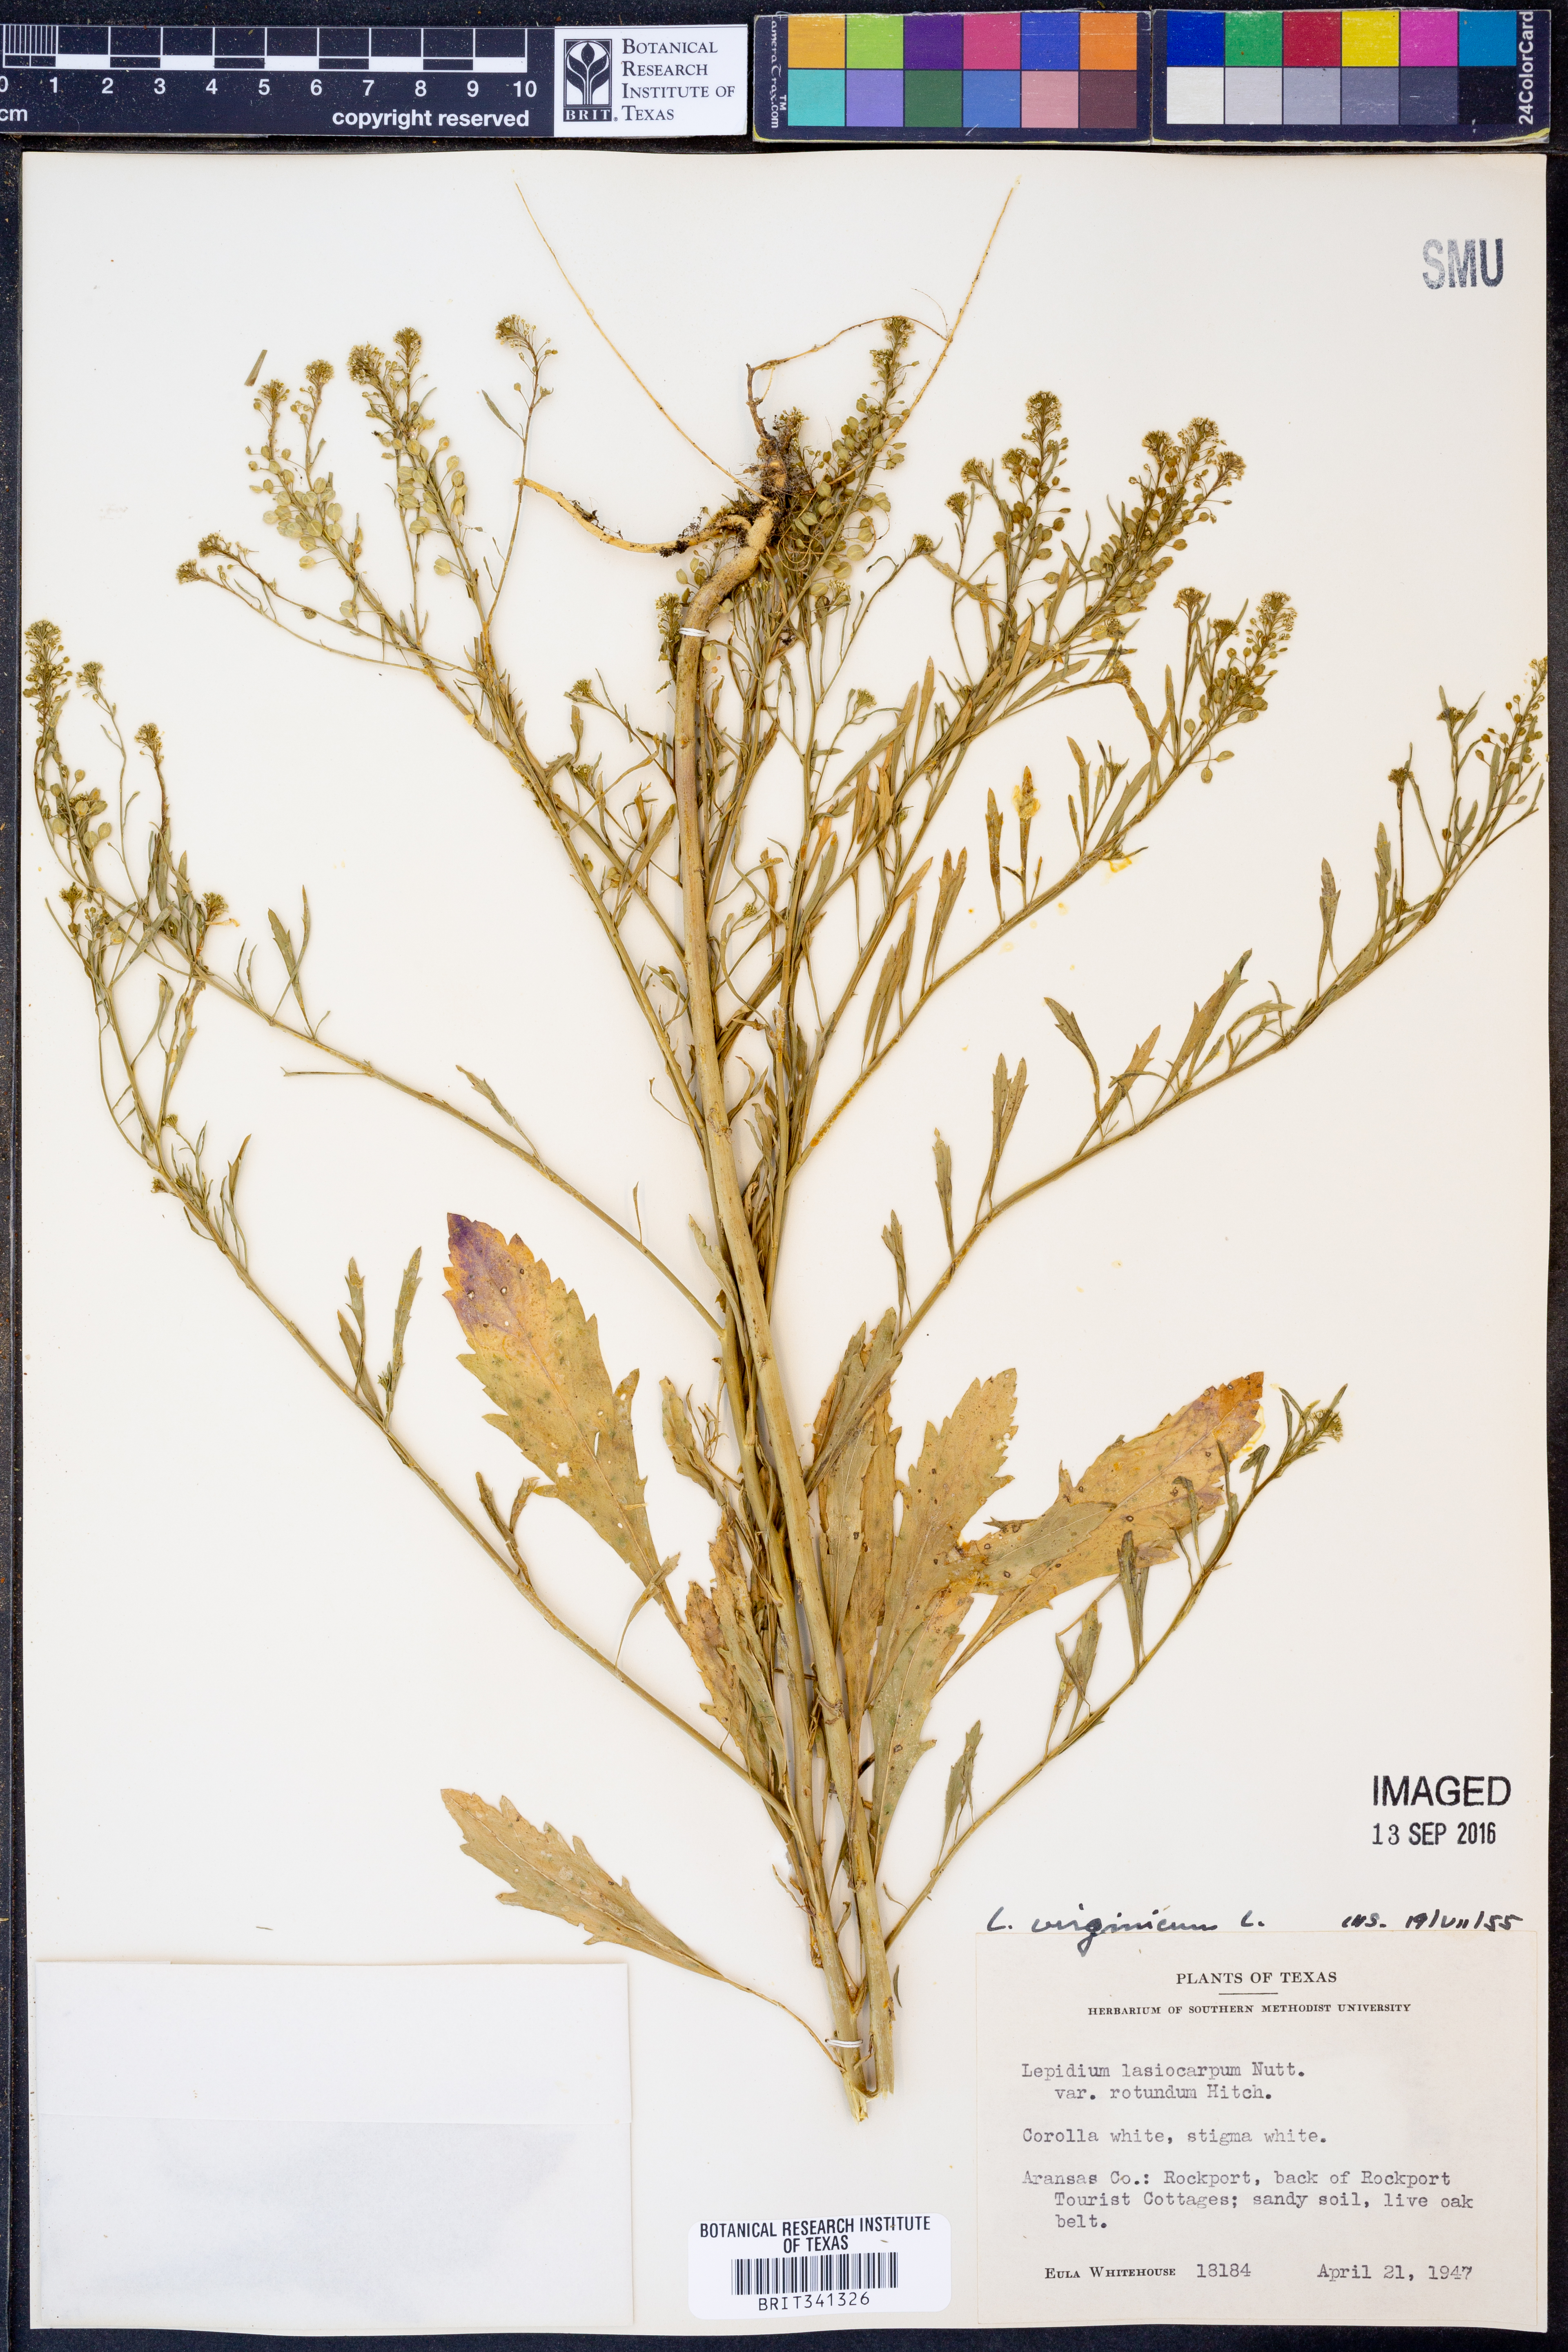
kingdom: Plantae
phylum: Tracheophyta
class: Magnoliopsida
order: Brassicales
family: Brassicaceae
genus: Lepidium
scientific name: Lepidium virginicum
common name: Least pepperwort
